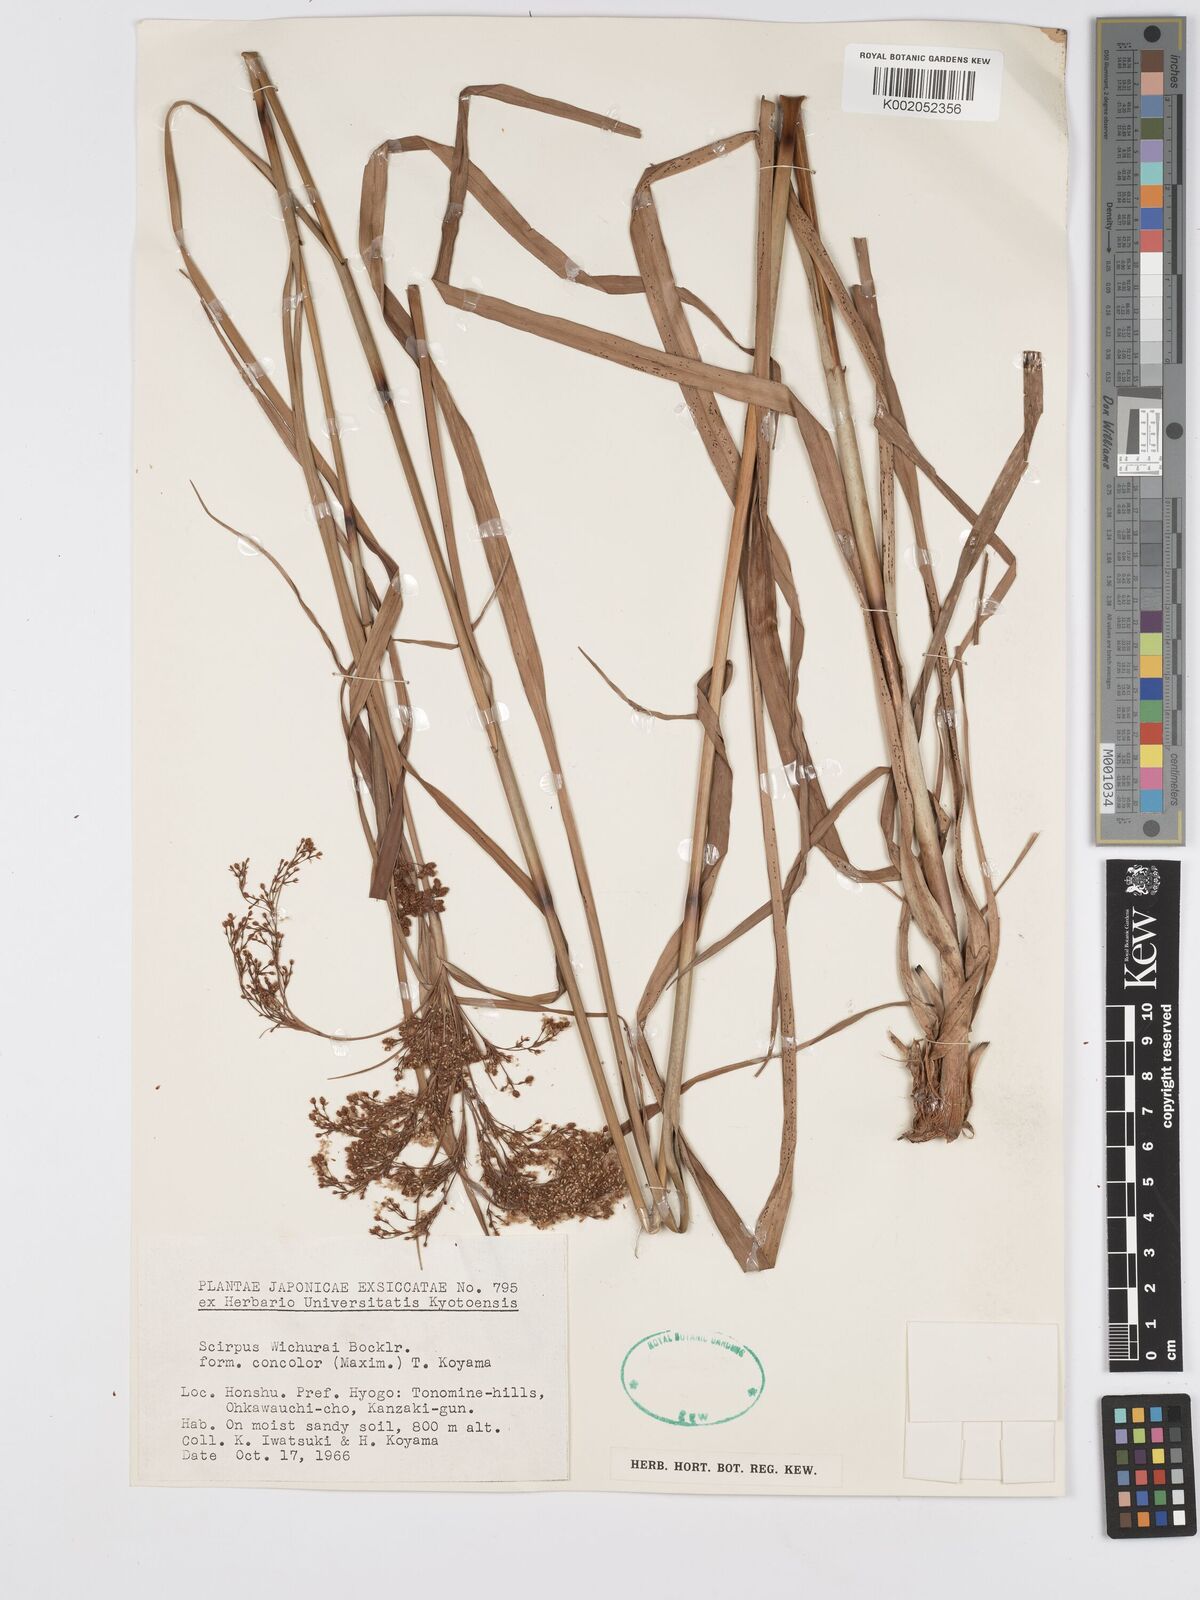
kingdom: Plantae
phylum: Tracheophyta
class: Liliopsida
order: Poales
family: Cyperaceae
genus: Scirpus
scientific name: Scirpus lineatus
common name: Drooping bulrush
